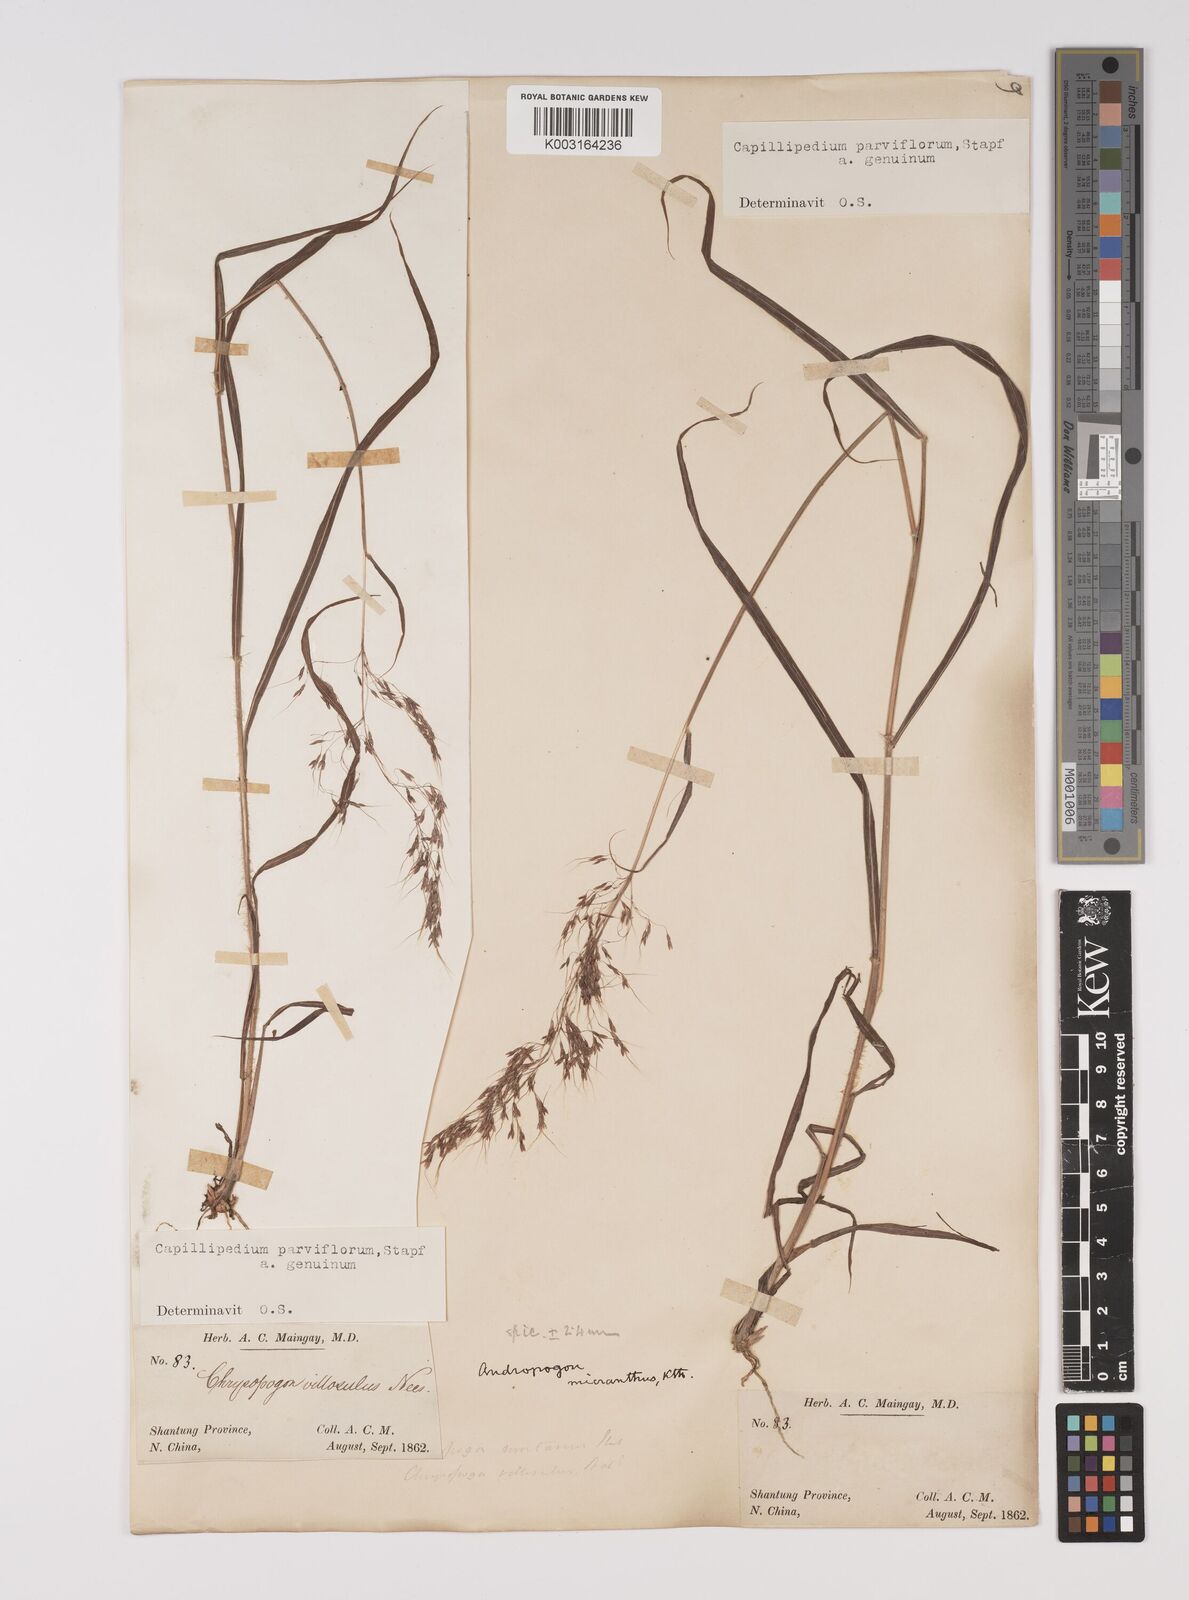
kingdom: Plantae
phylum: Tracheophyta
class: Liliopsida
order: Poales
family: Poaceae
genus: Capillipedium
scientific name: Capillipedium parviflorum
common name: Golden-beard
